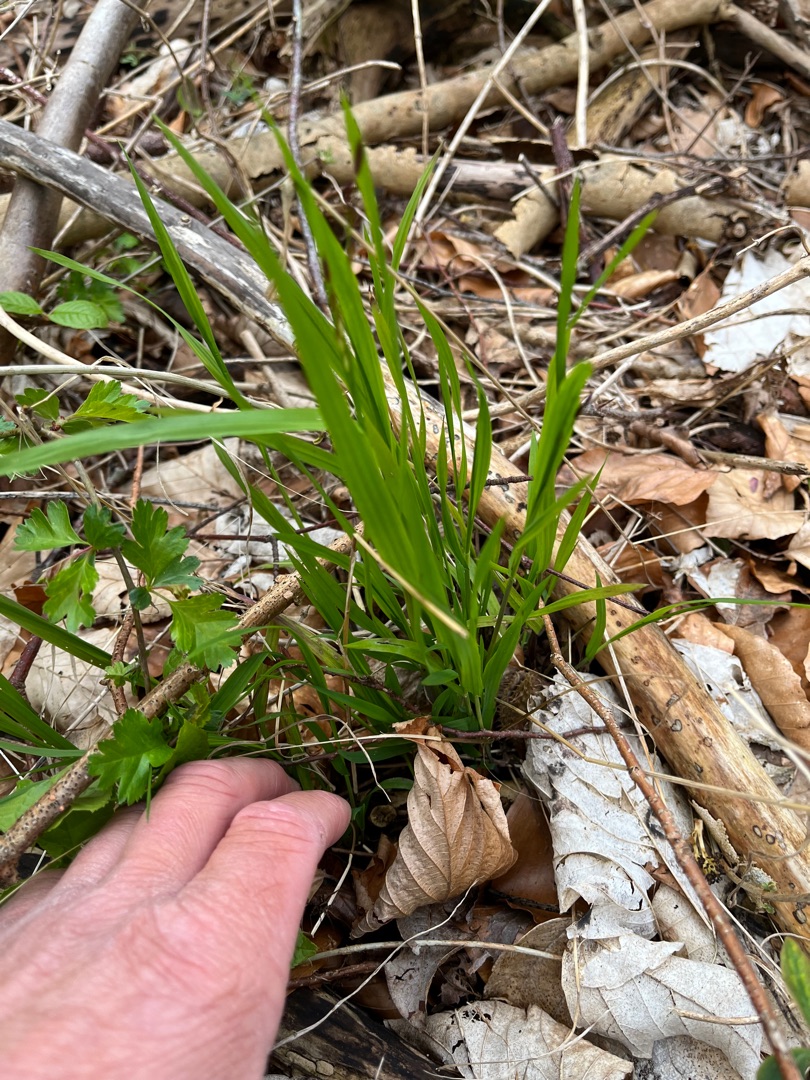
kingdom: Plantae
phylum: Tracheophyta
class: Liliopsida
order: Poales
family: Poaceae
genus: Melica
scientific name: Melica uniflora
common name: Enblomstret flitteraks
